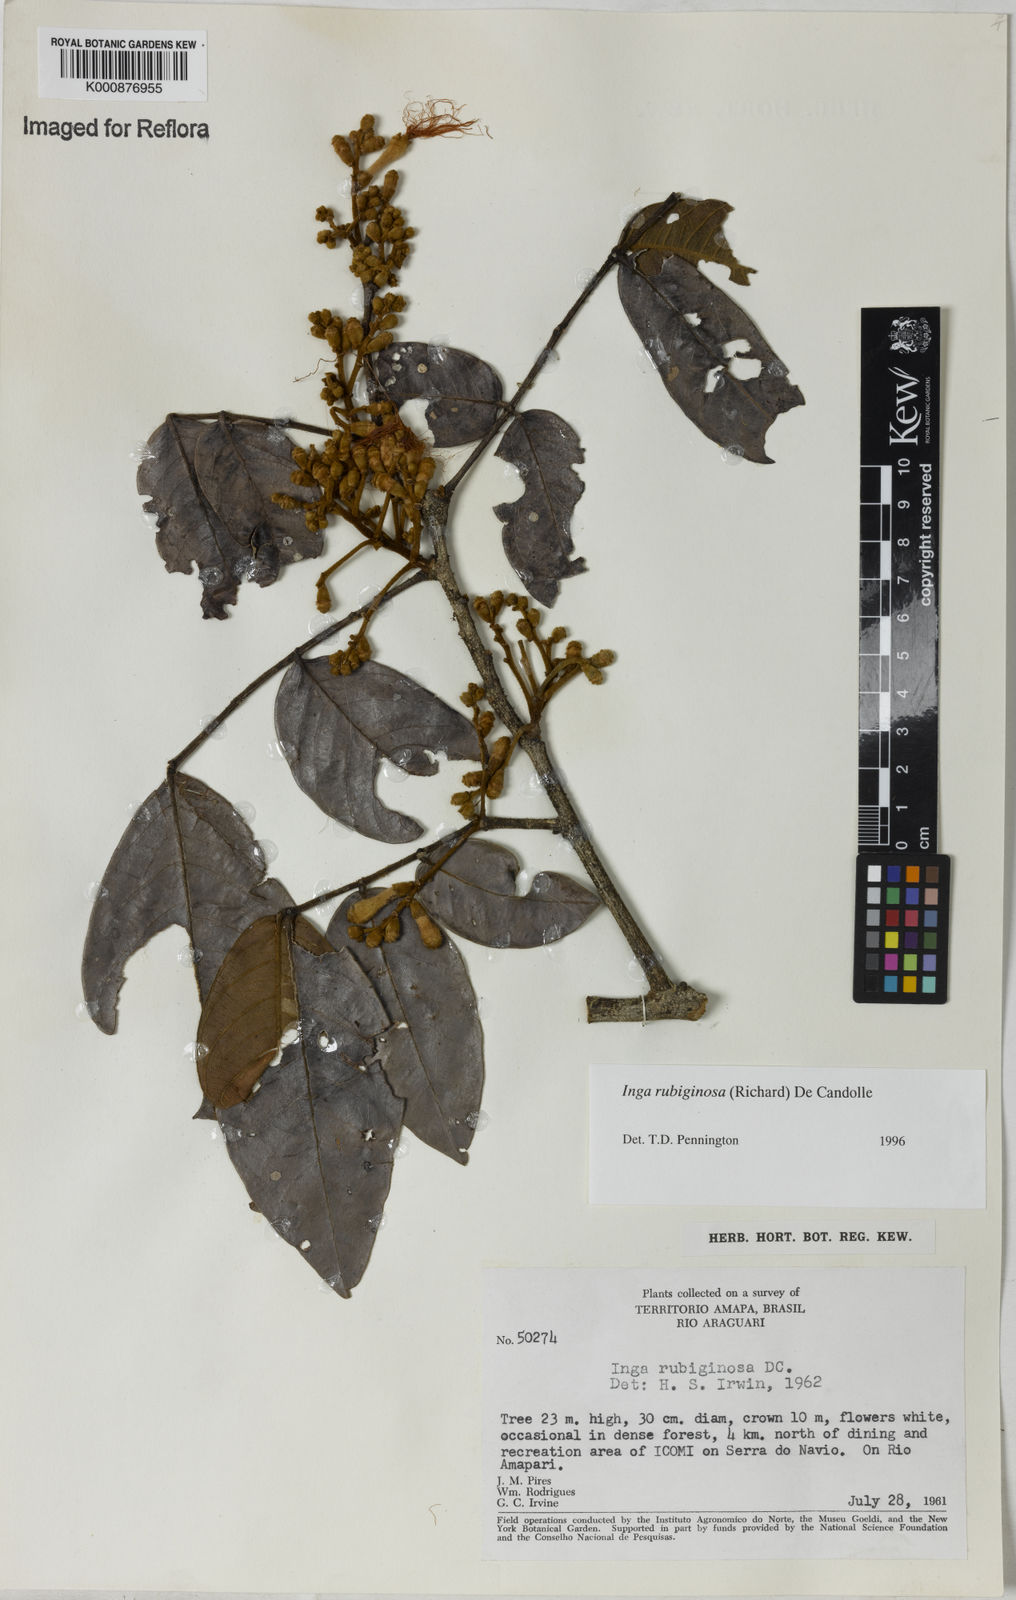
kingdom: Plantae
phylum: Tracheophyta
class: Magnoliopsida
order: Fabales
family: Fabaceae
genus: Inga
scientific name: Inga rubiginosa
